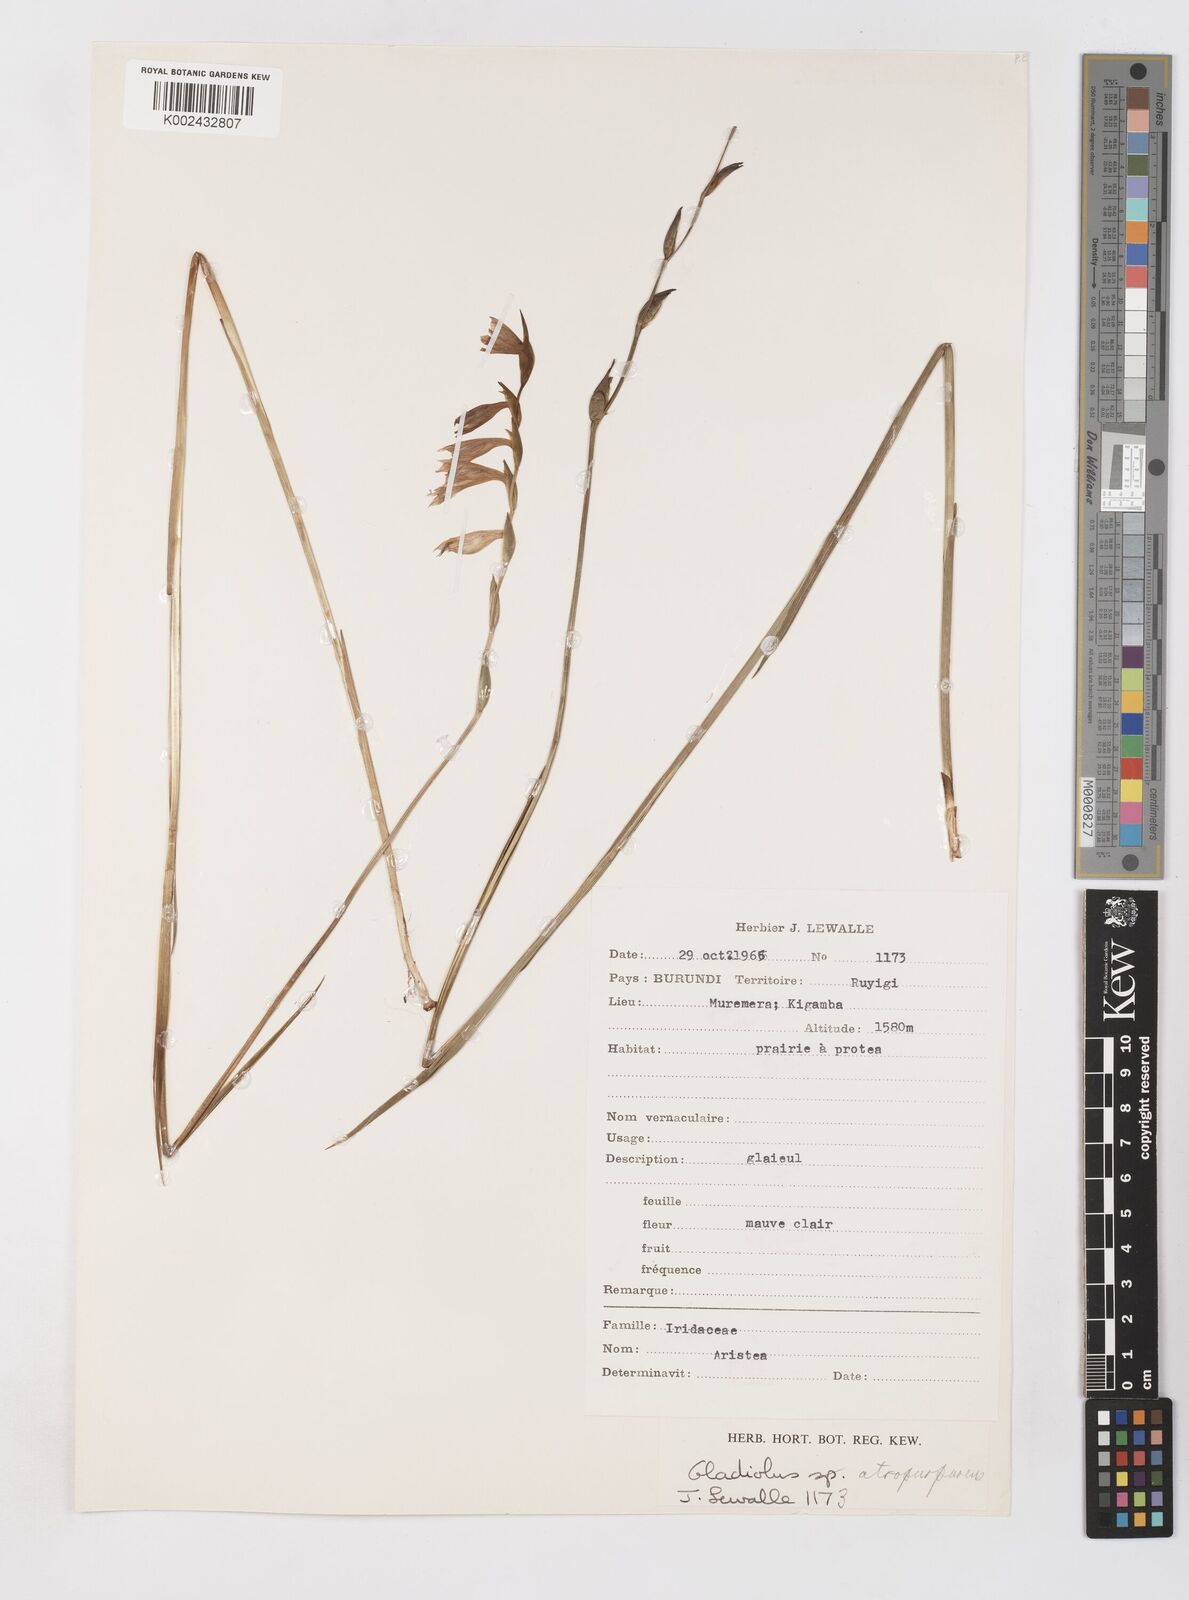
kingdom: Plantae
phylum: Tracheophyta
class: Liliopsida
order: Asparagales
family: Iridaceae
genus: Gladiolus
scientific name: Gladiolus atropurpureus
